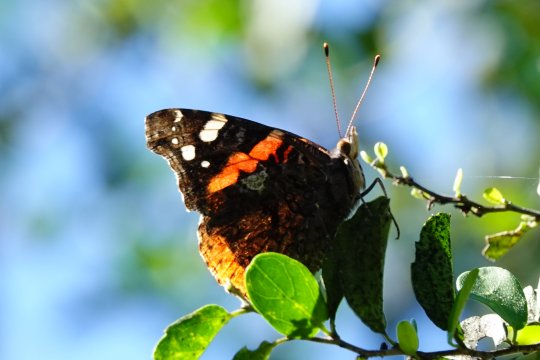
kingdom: Animalia
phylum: Arthropoda
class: Insecta
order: Lepidoptera
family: Nymphalidae
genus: Vanessa
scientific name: Vanessa atalanta
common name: Red Admiral
